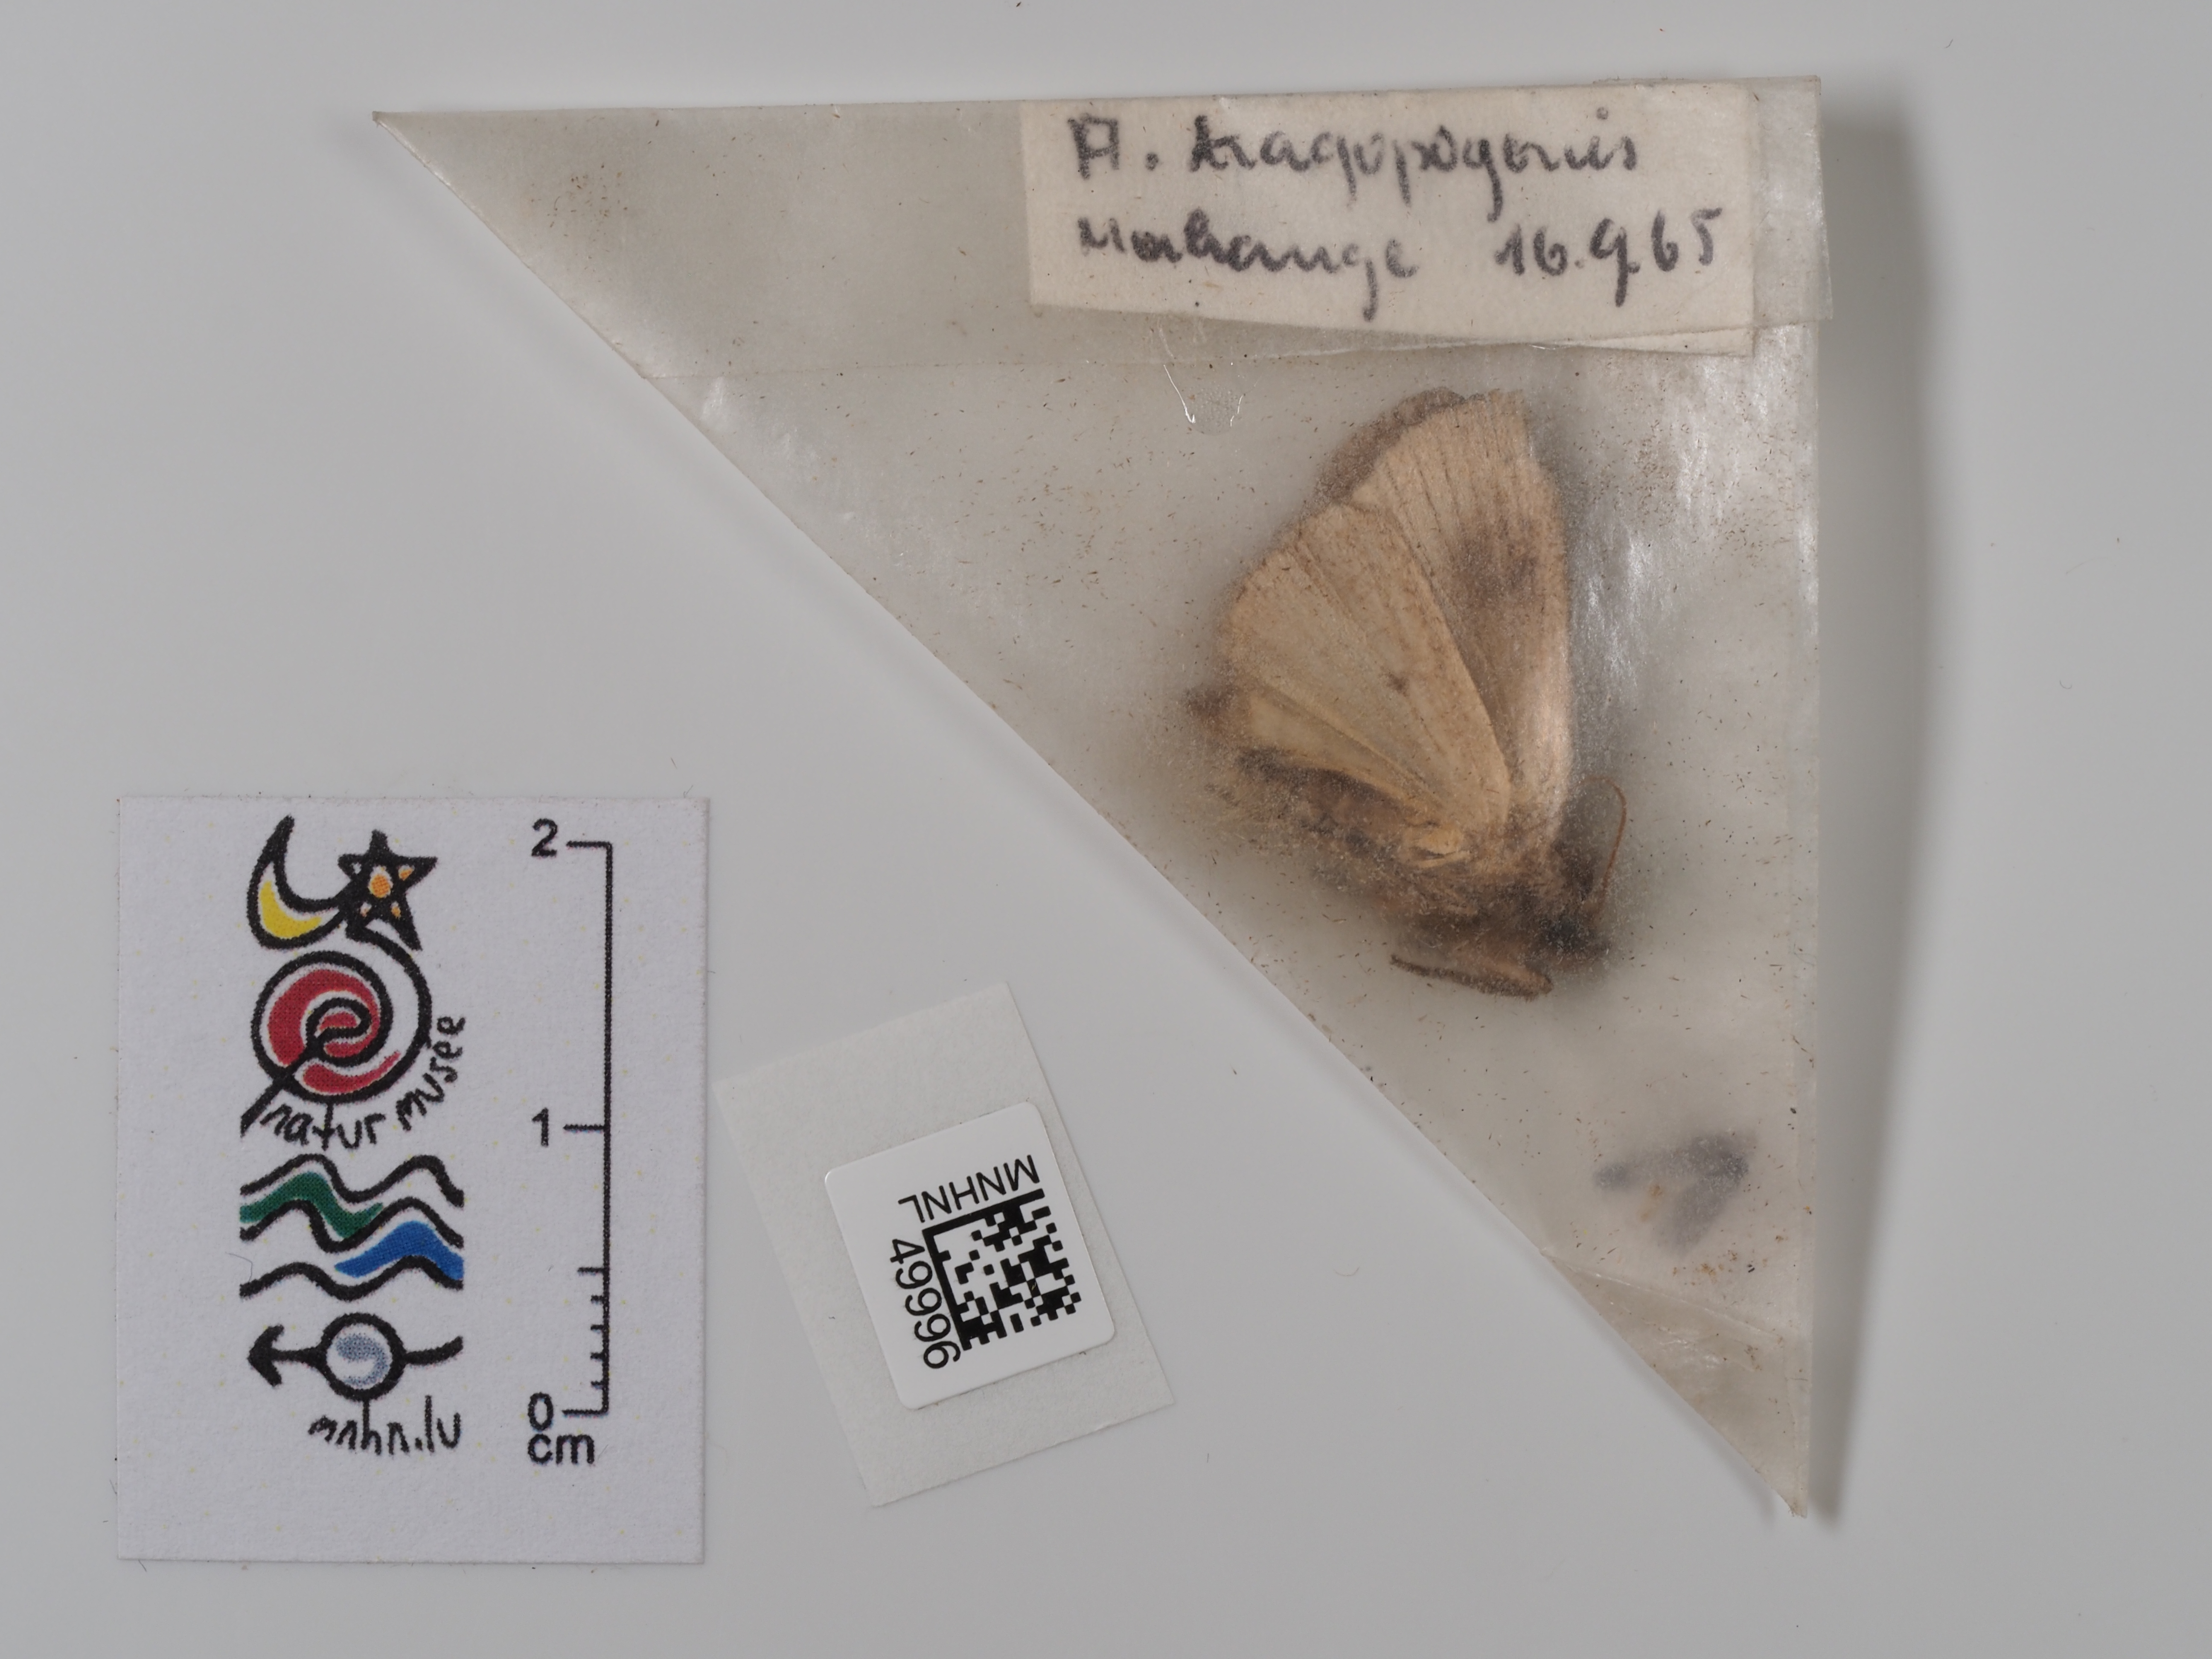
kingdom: Animalia
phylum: Arthropoda
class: Insecta
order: Lepidoptera
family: Noctuidae
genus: Amphipyra
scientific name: Amphipyra tragopoginis
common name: Mouse moth
